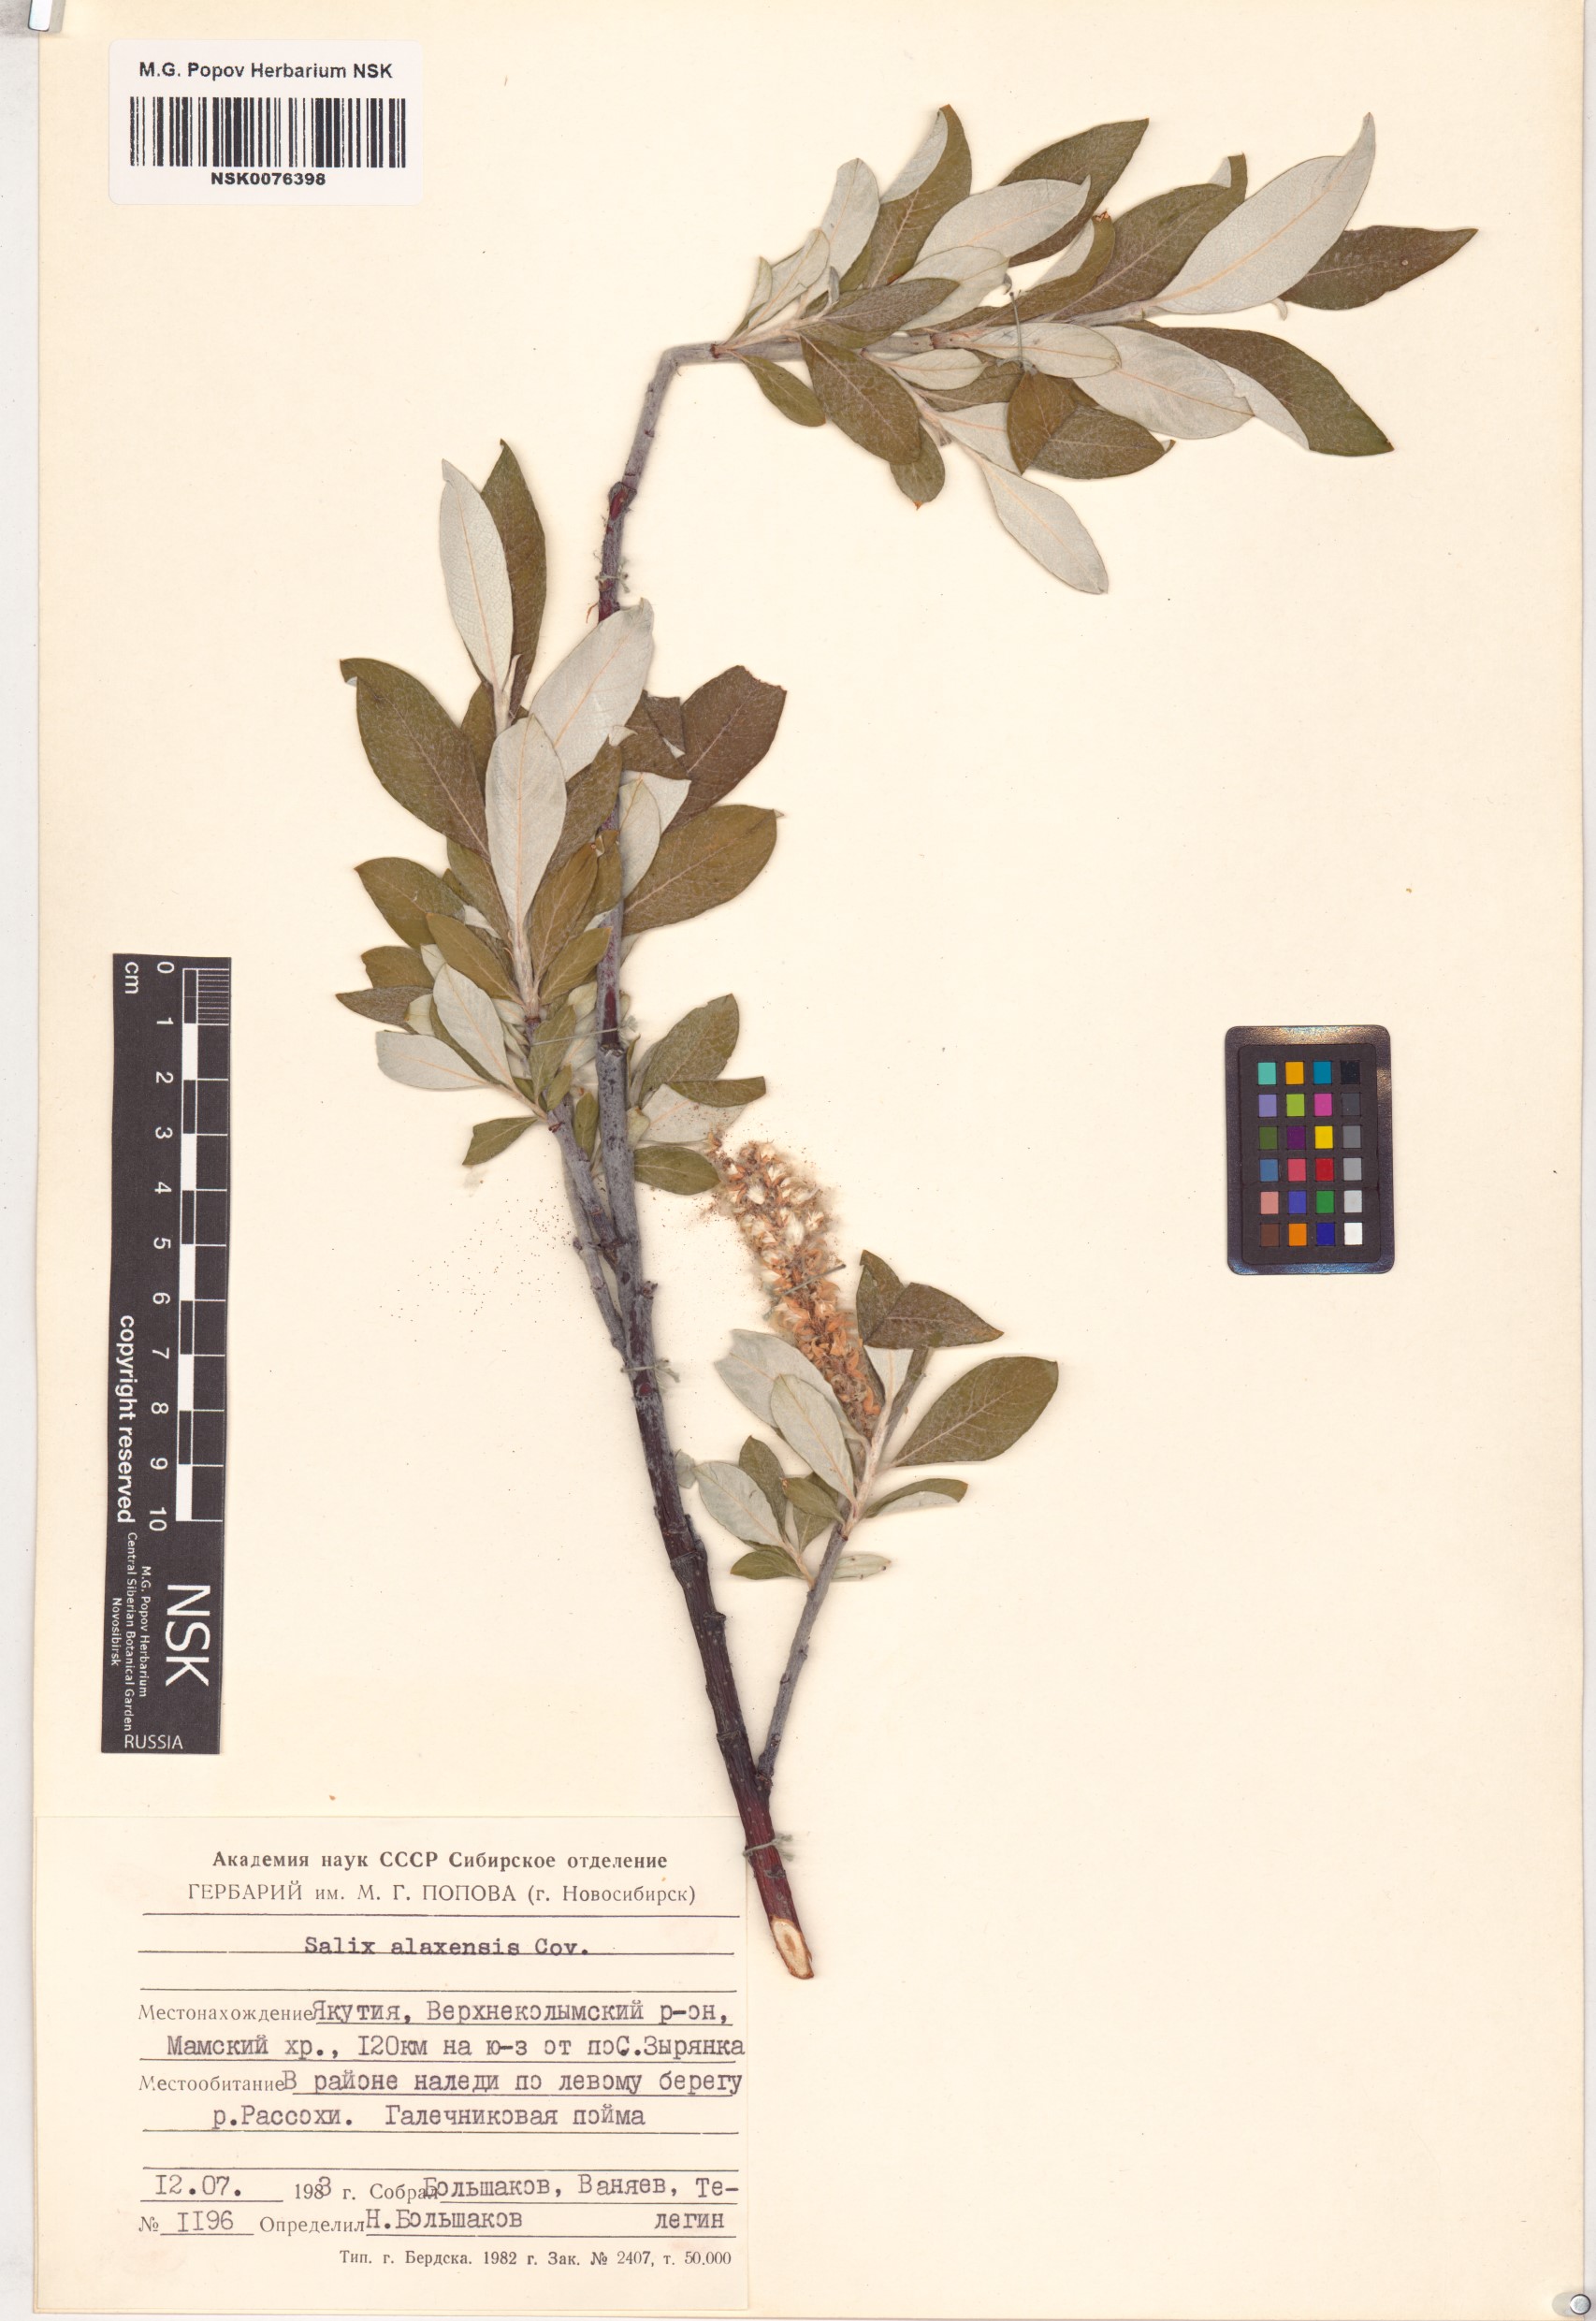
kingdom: Plantae
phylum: Tracheophyta
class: Magnoliopsida
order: Malpighiales
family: Salicaceae
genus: Salix
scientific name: Salix alaxensis
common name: Feltleaf willow
